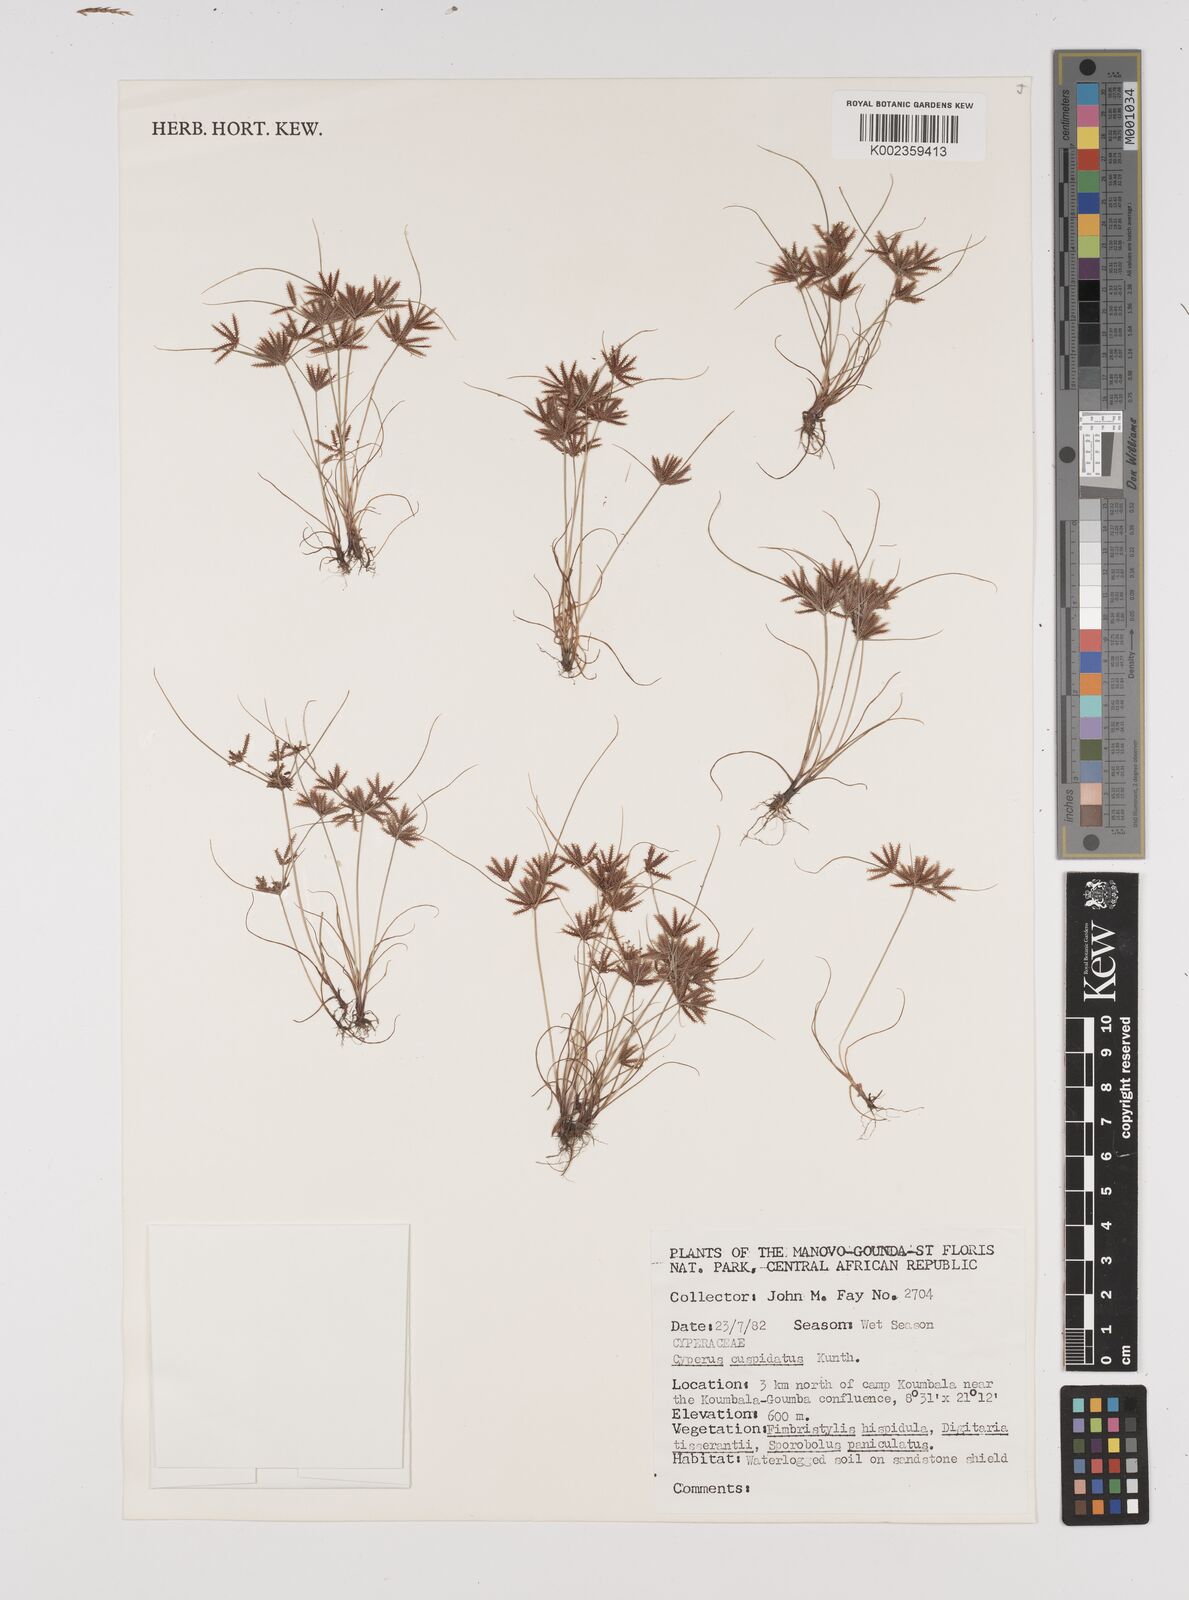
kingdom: Plantae
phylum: Tracheophyta
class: Liliopsida
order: Poales
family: Cyperaceae
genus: Cyperus
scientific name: Cyperus cuspidatus
